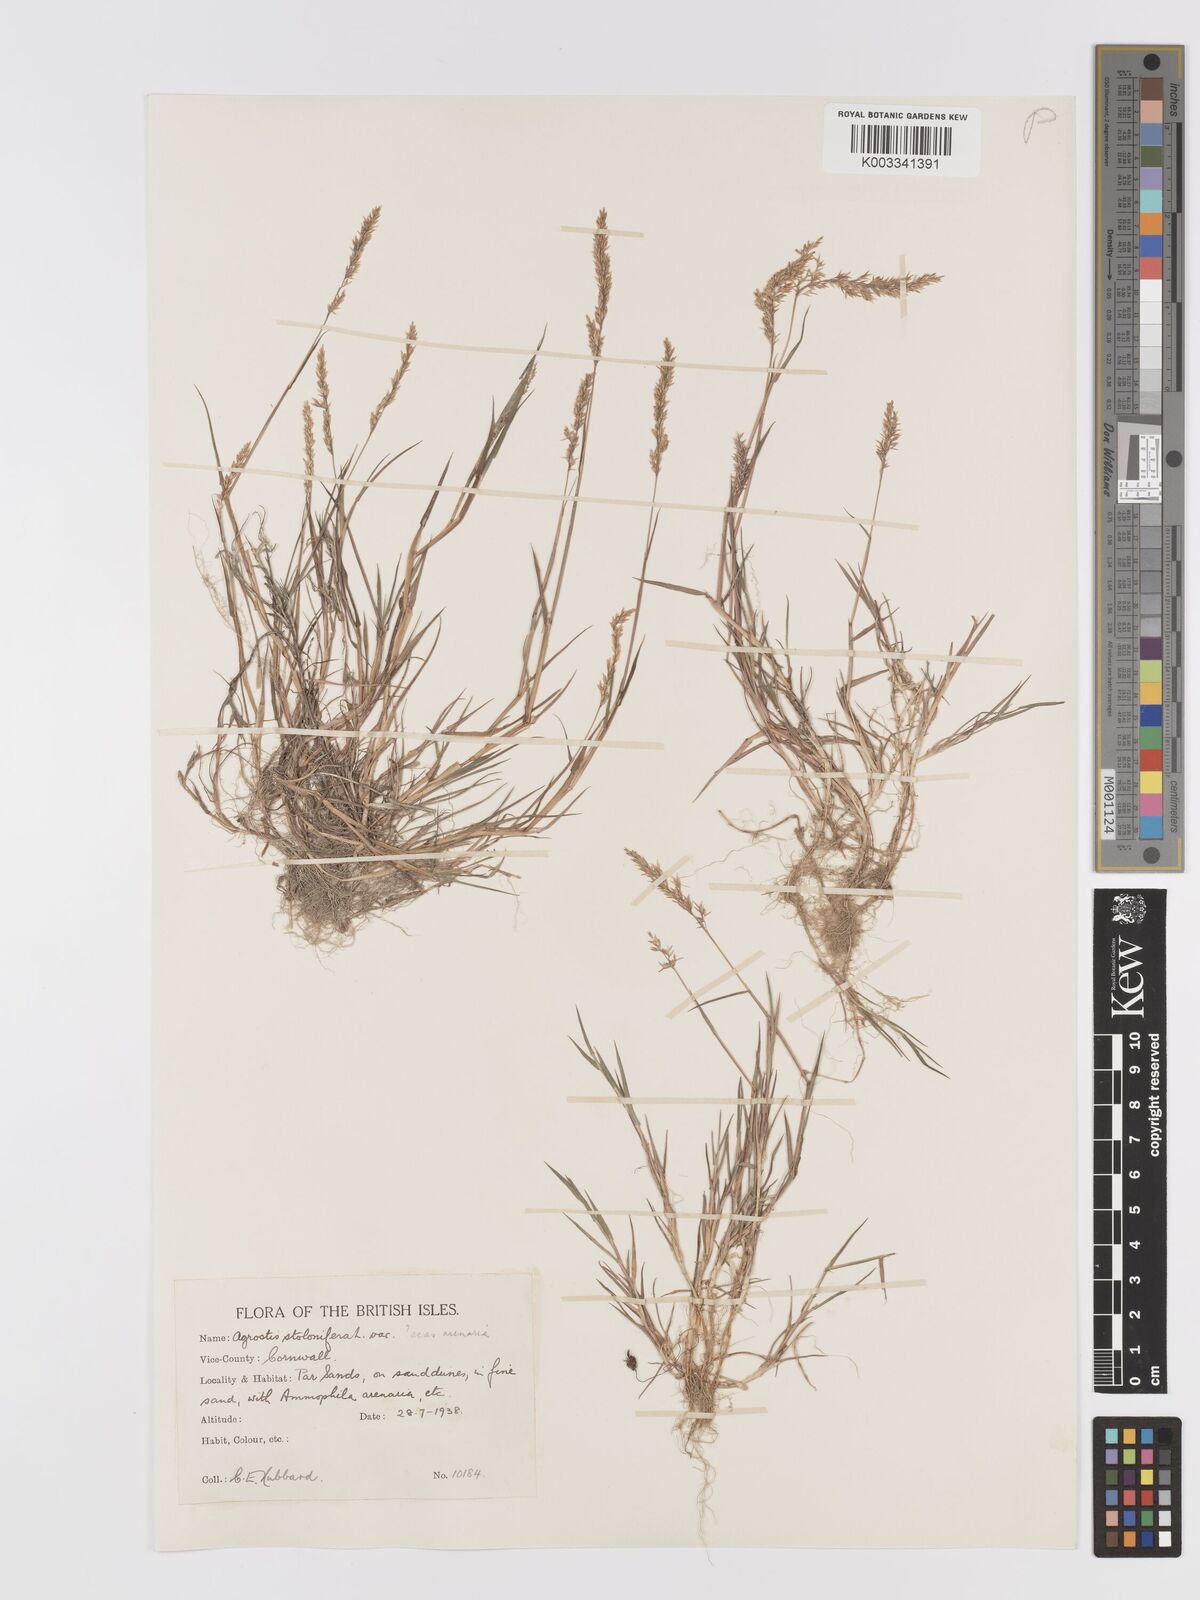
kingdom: Plantae
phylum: Tracheophyta
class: Liliopsida
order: Poales
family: Poaceae
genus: Agrostis
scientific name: Agrostis stolonifera
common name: Creeping bentgrass
